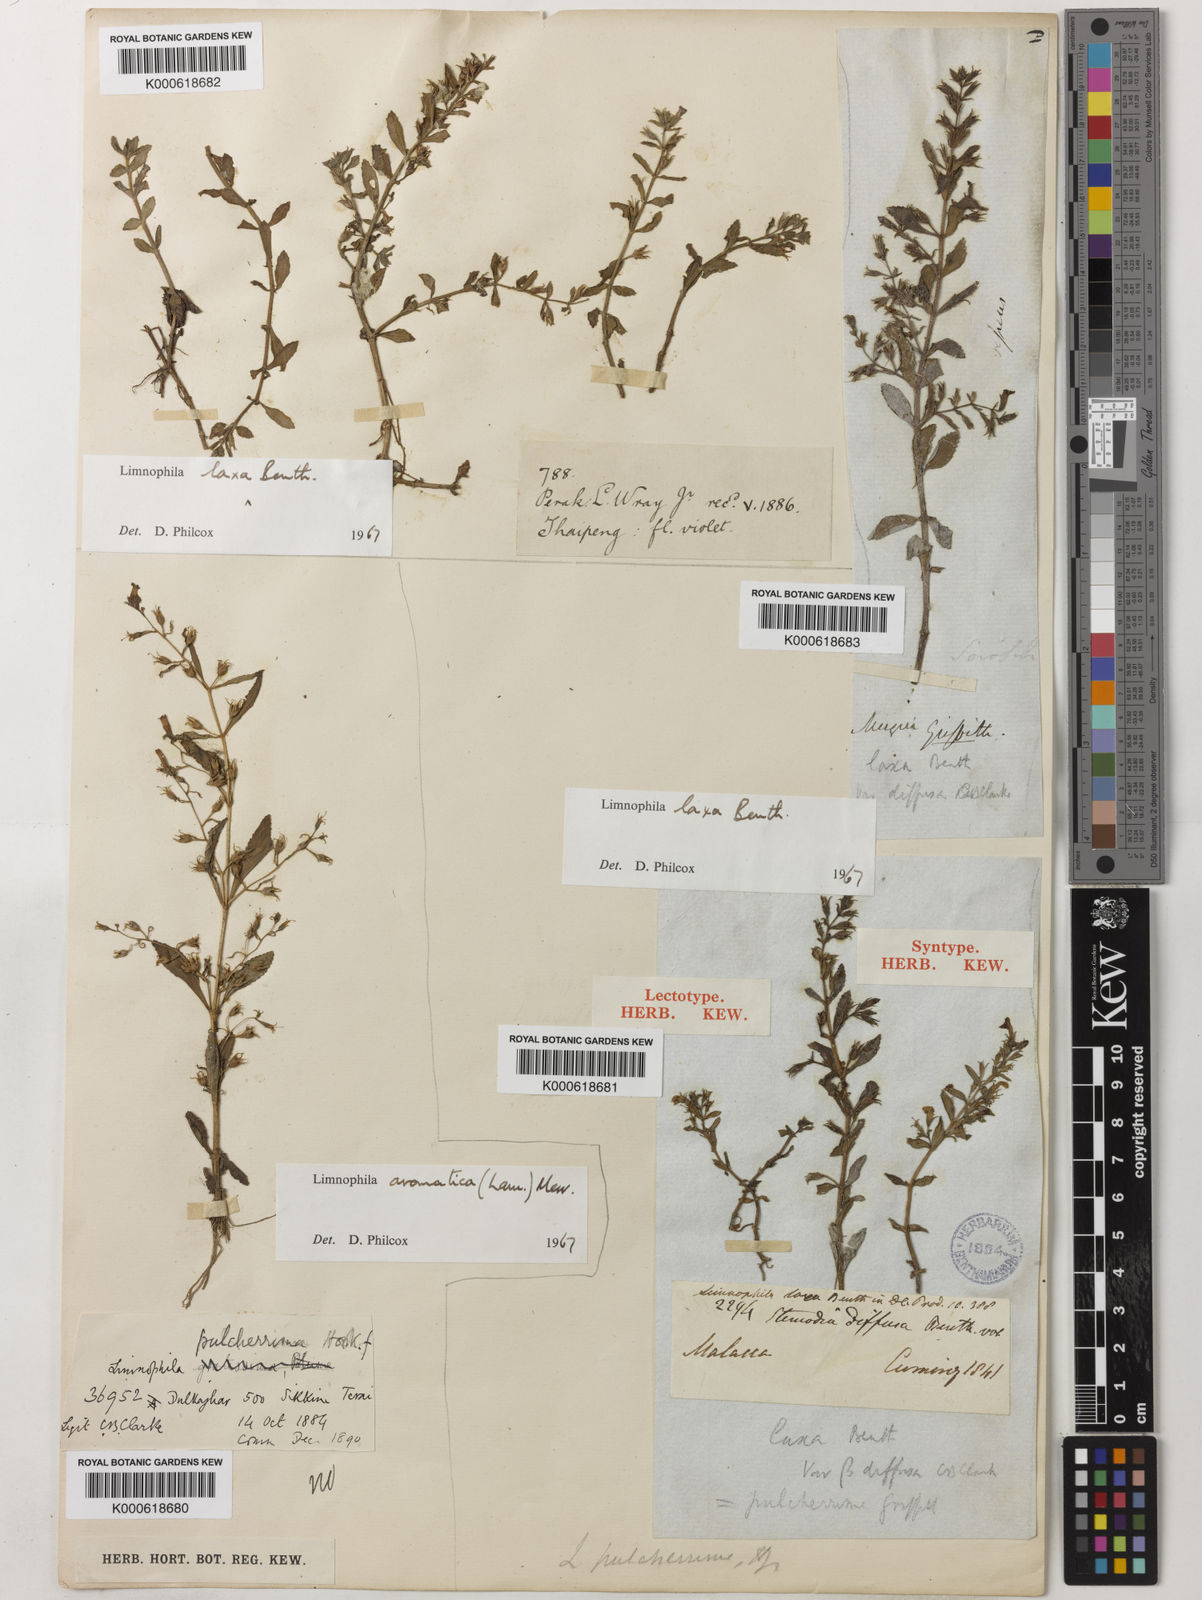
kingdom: Plantae
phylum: Tracheophyta
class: Magnoliopsida
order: Lamiales
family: Plantaginaceae
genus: Limnophila
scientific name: Limnophila laxa
